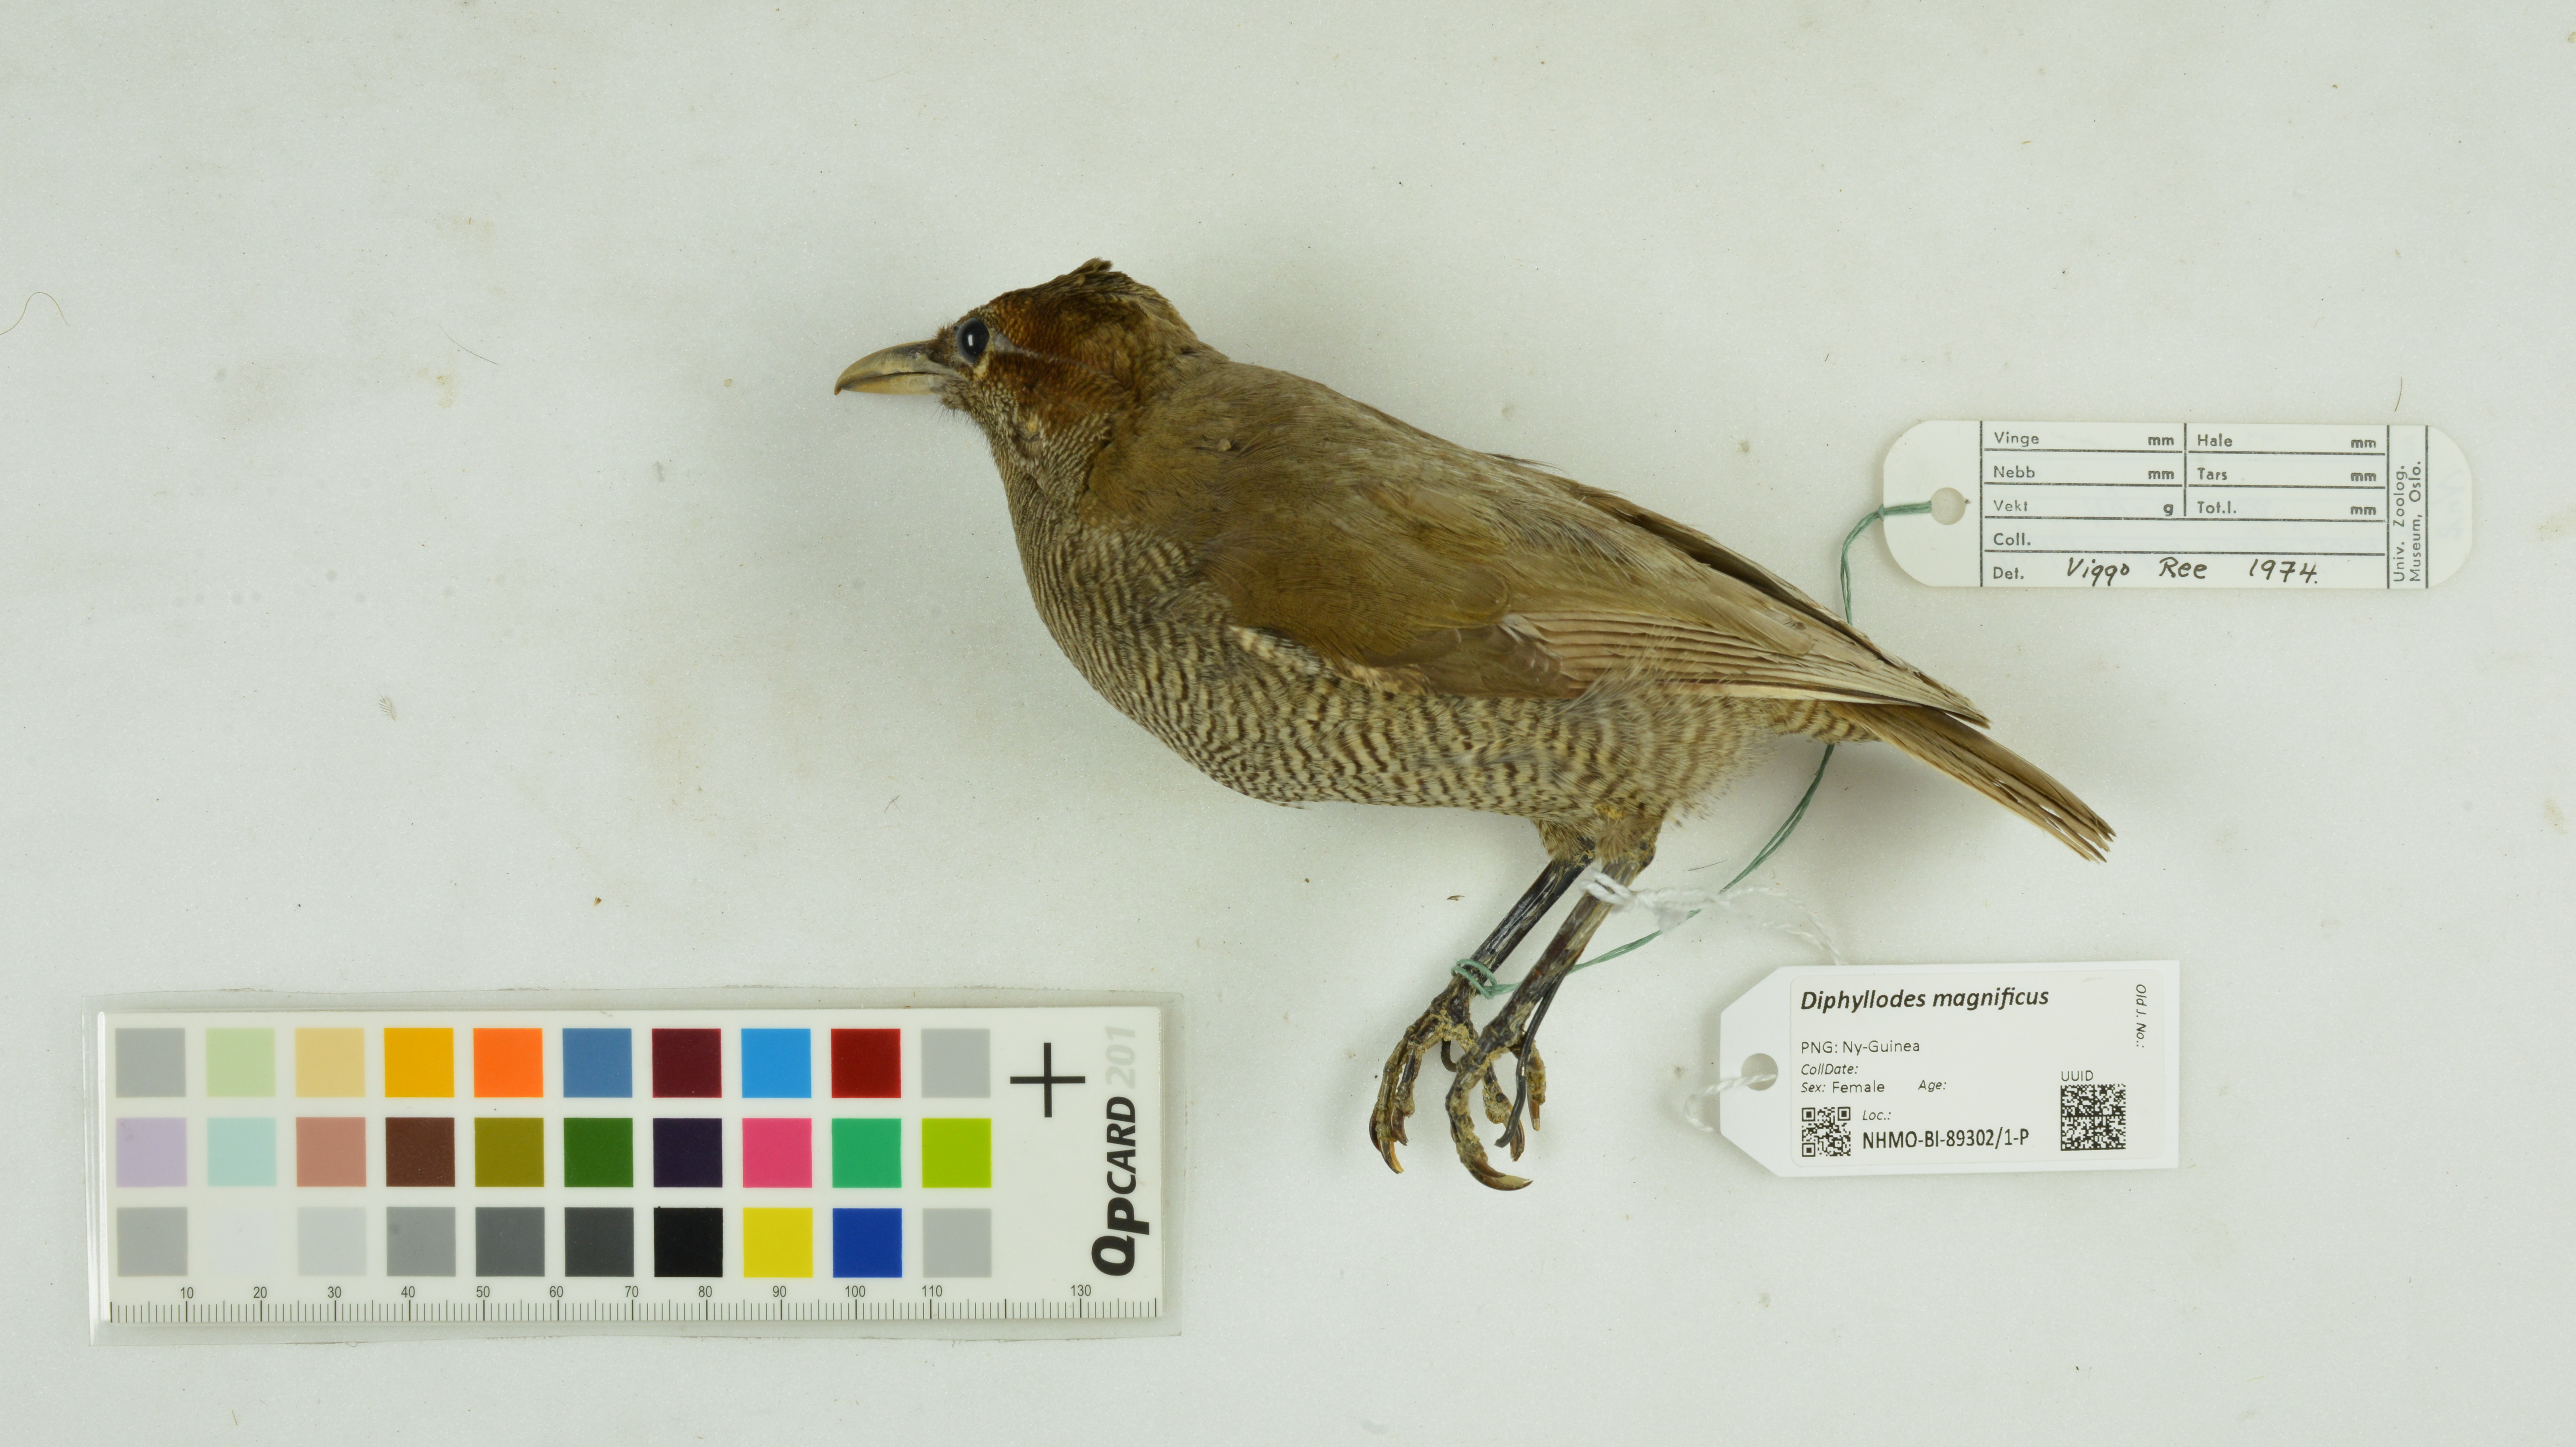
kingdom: Animalia
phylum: Chordata
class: Aves
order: Passeriformes
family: Paradisaeidae
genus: Diphyllodes
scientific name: Diphyllodes magnificus
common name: Magnificent bird-of-paradise
